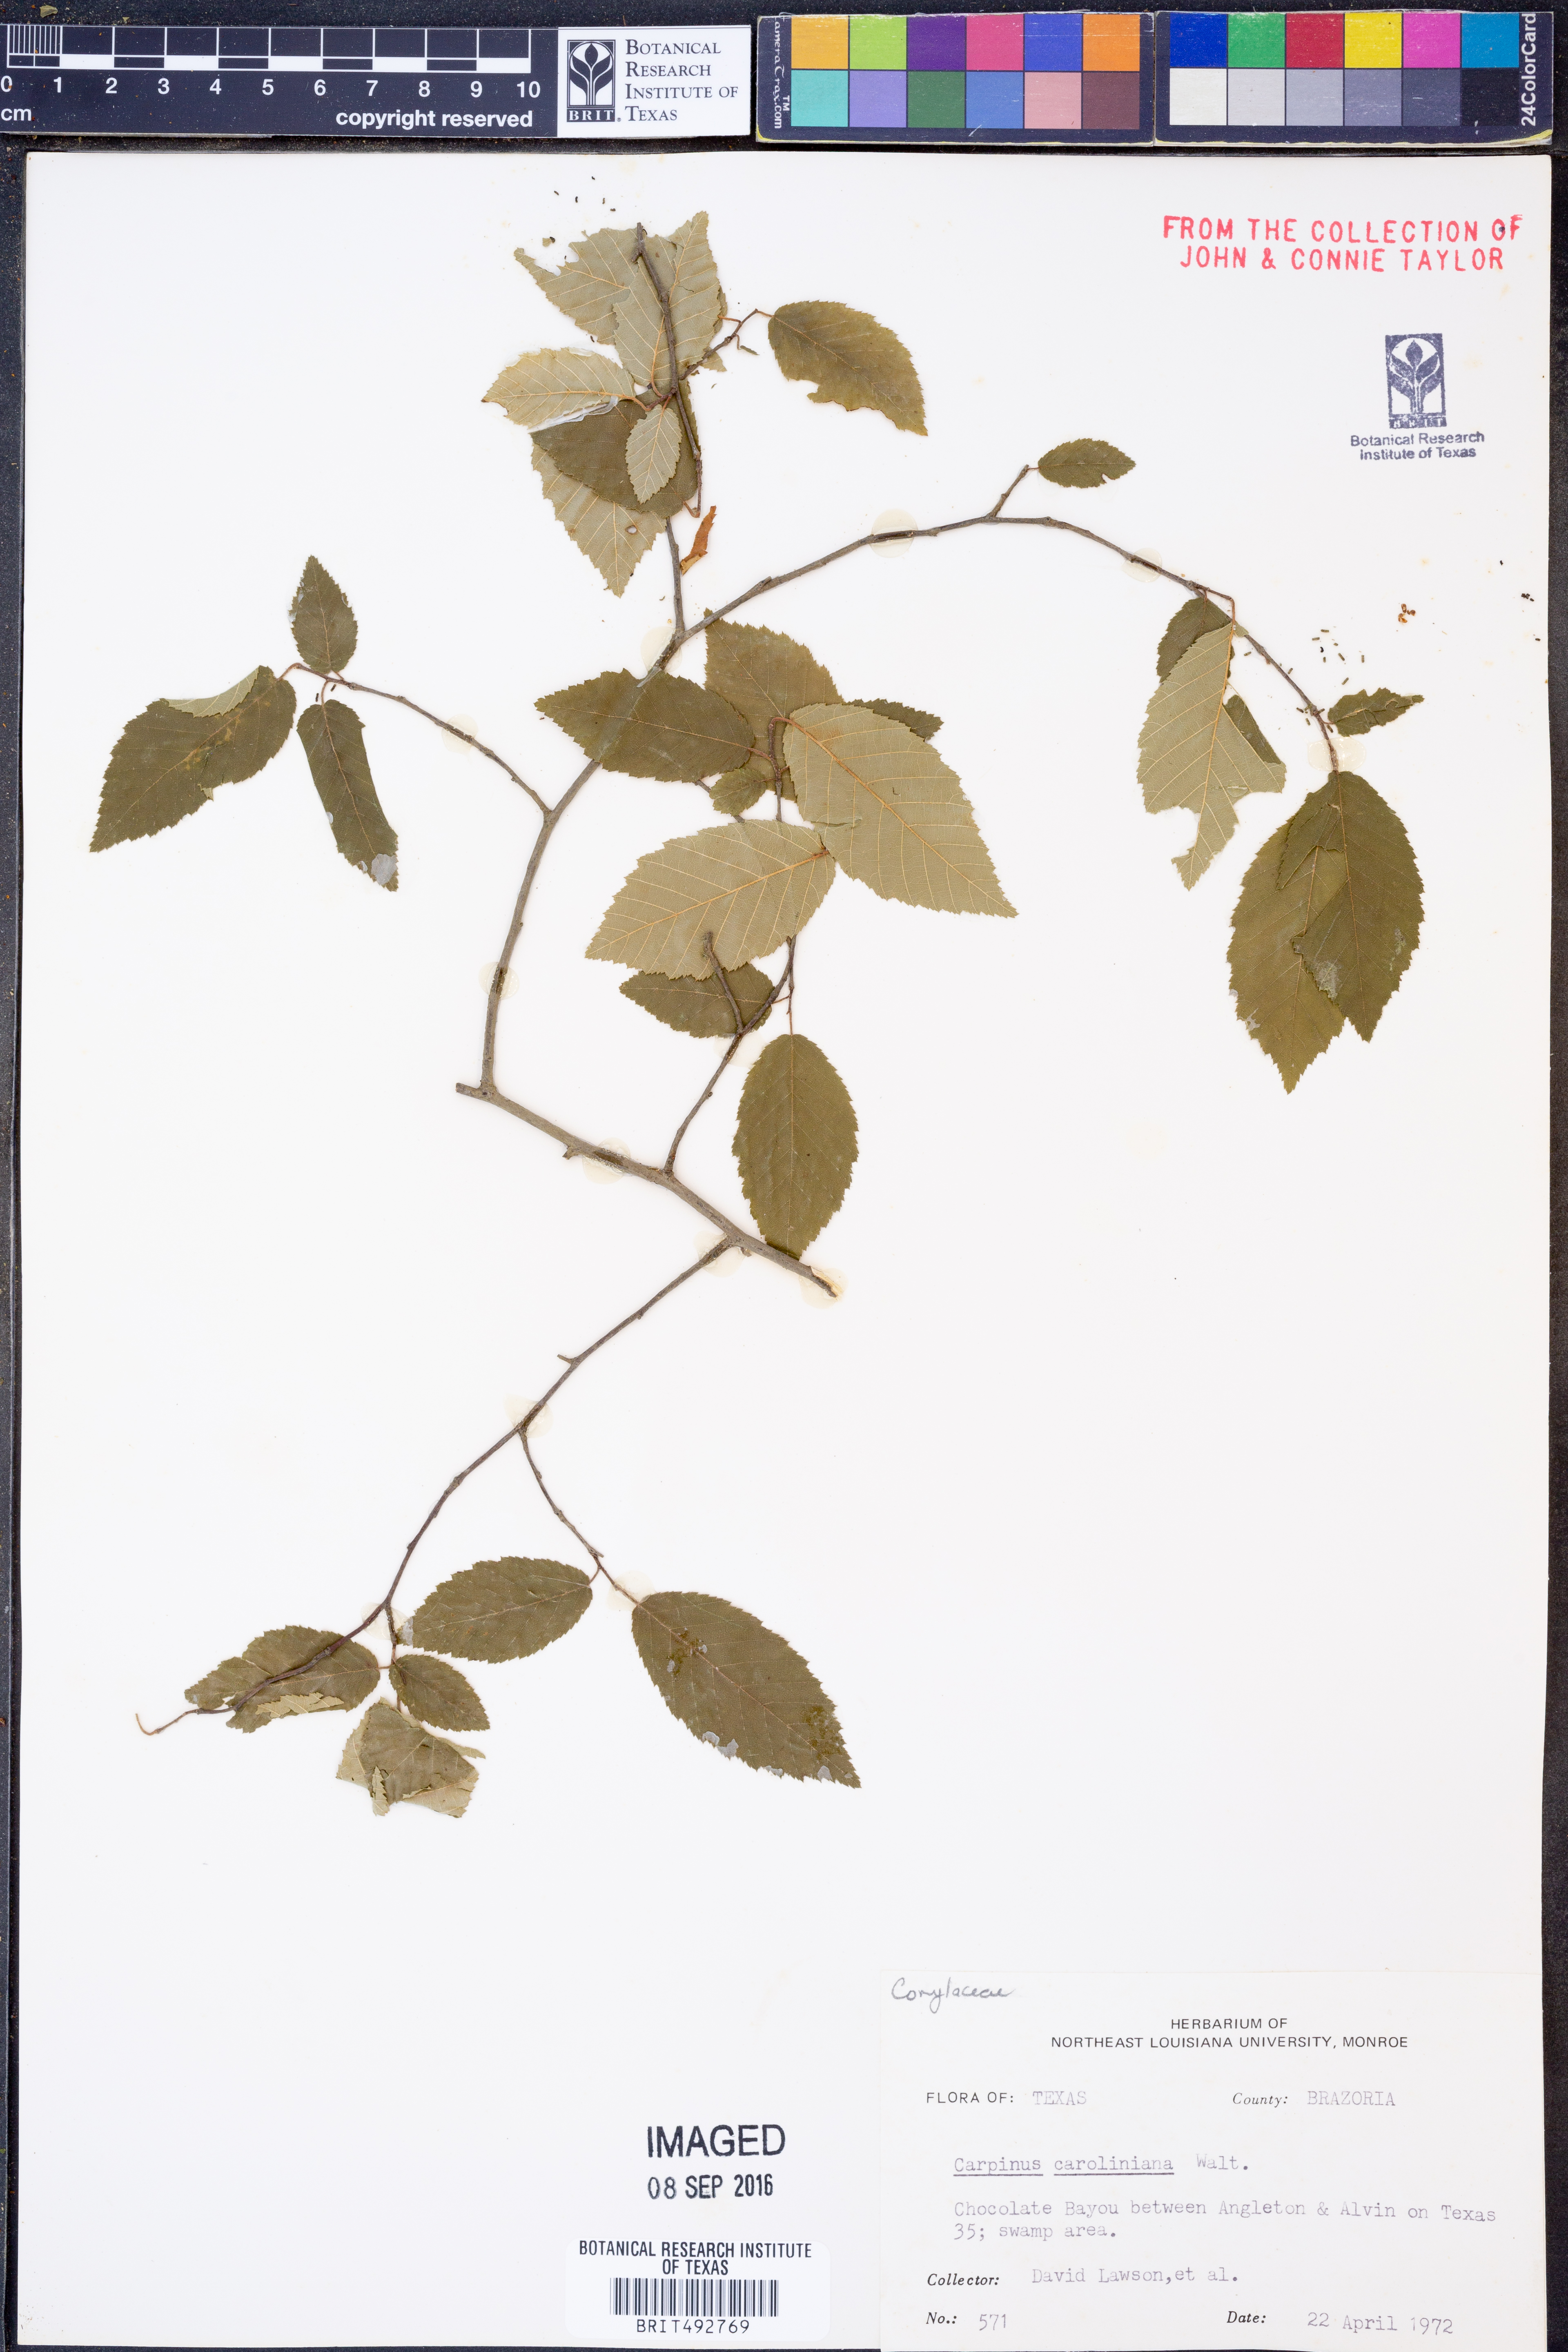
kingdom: Plantae
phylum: Tracheophyta
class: Magnoliopsida
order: Fagales
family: Betulaceae
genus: Carpinus
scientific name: Carpinus caroliniana
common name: American hornbeam
